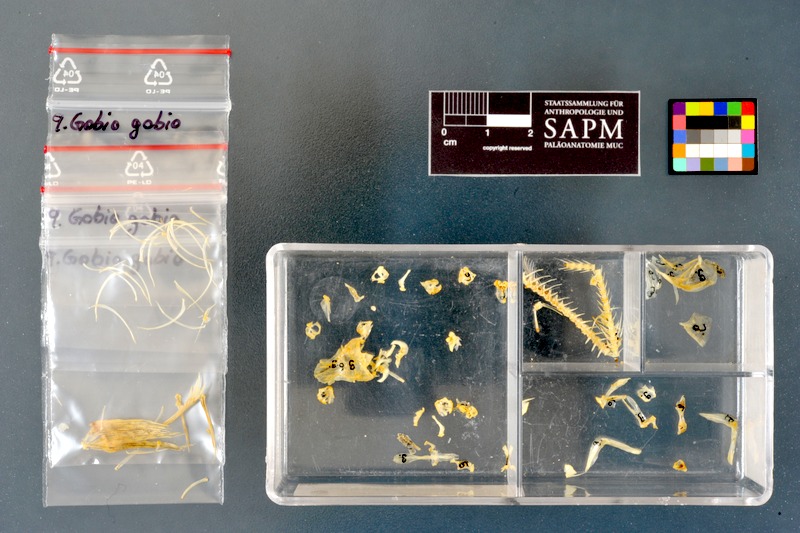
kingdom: Animalia
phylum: Chordata
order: Cypriniformes
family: Cyprinidae
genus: Gobio
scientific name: Gobio gobio
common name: Gudgeon
